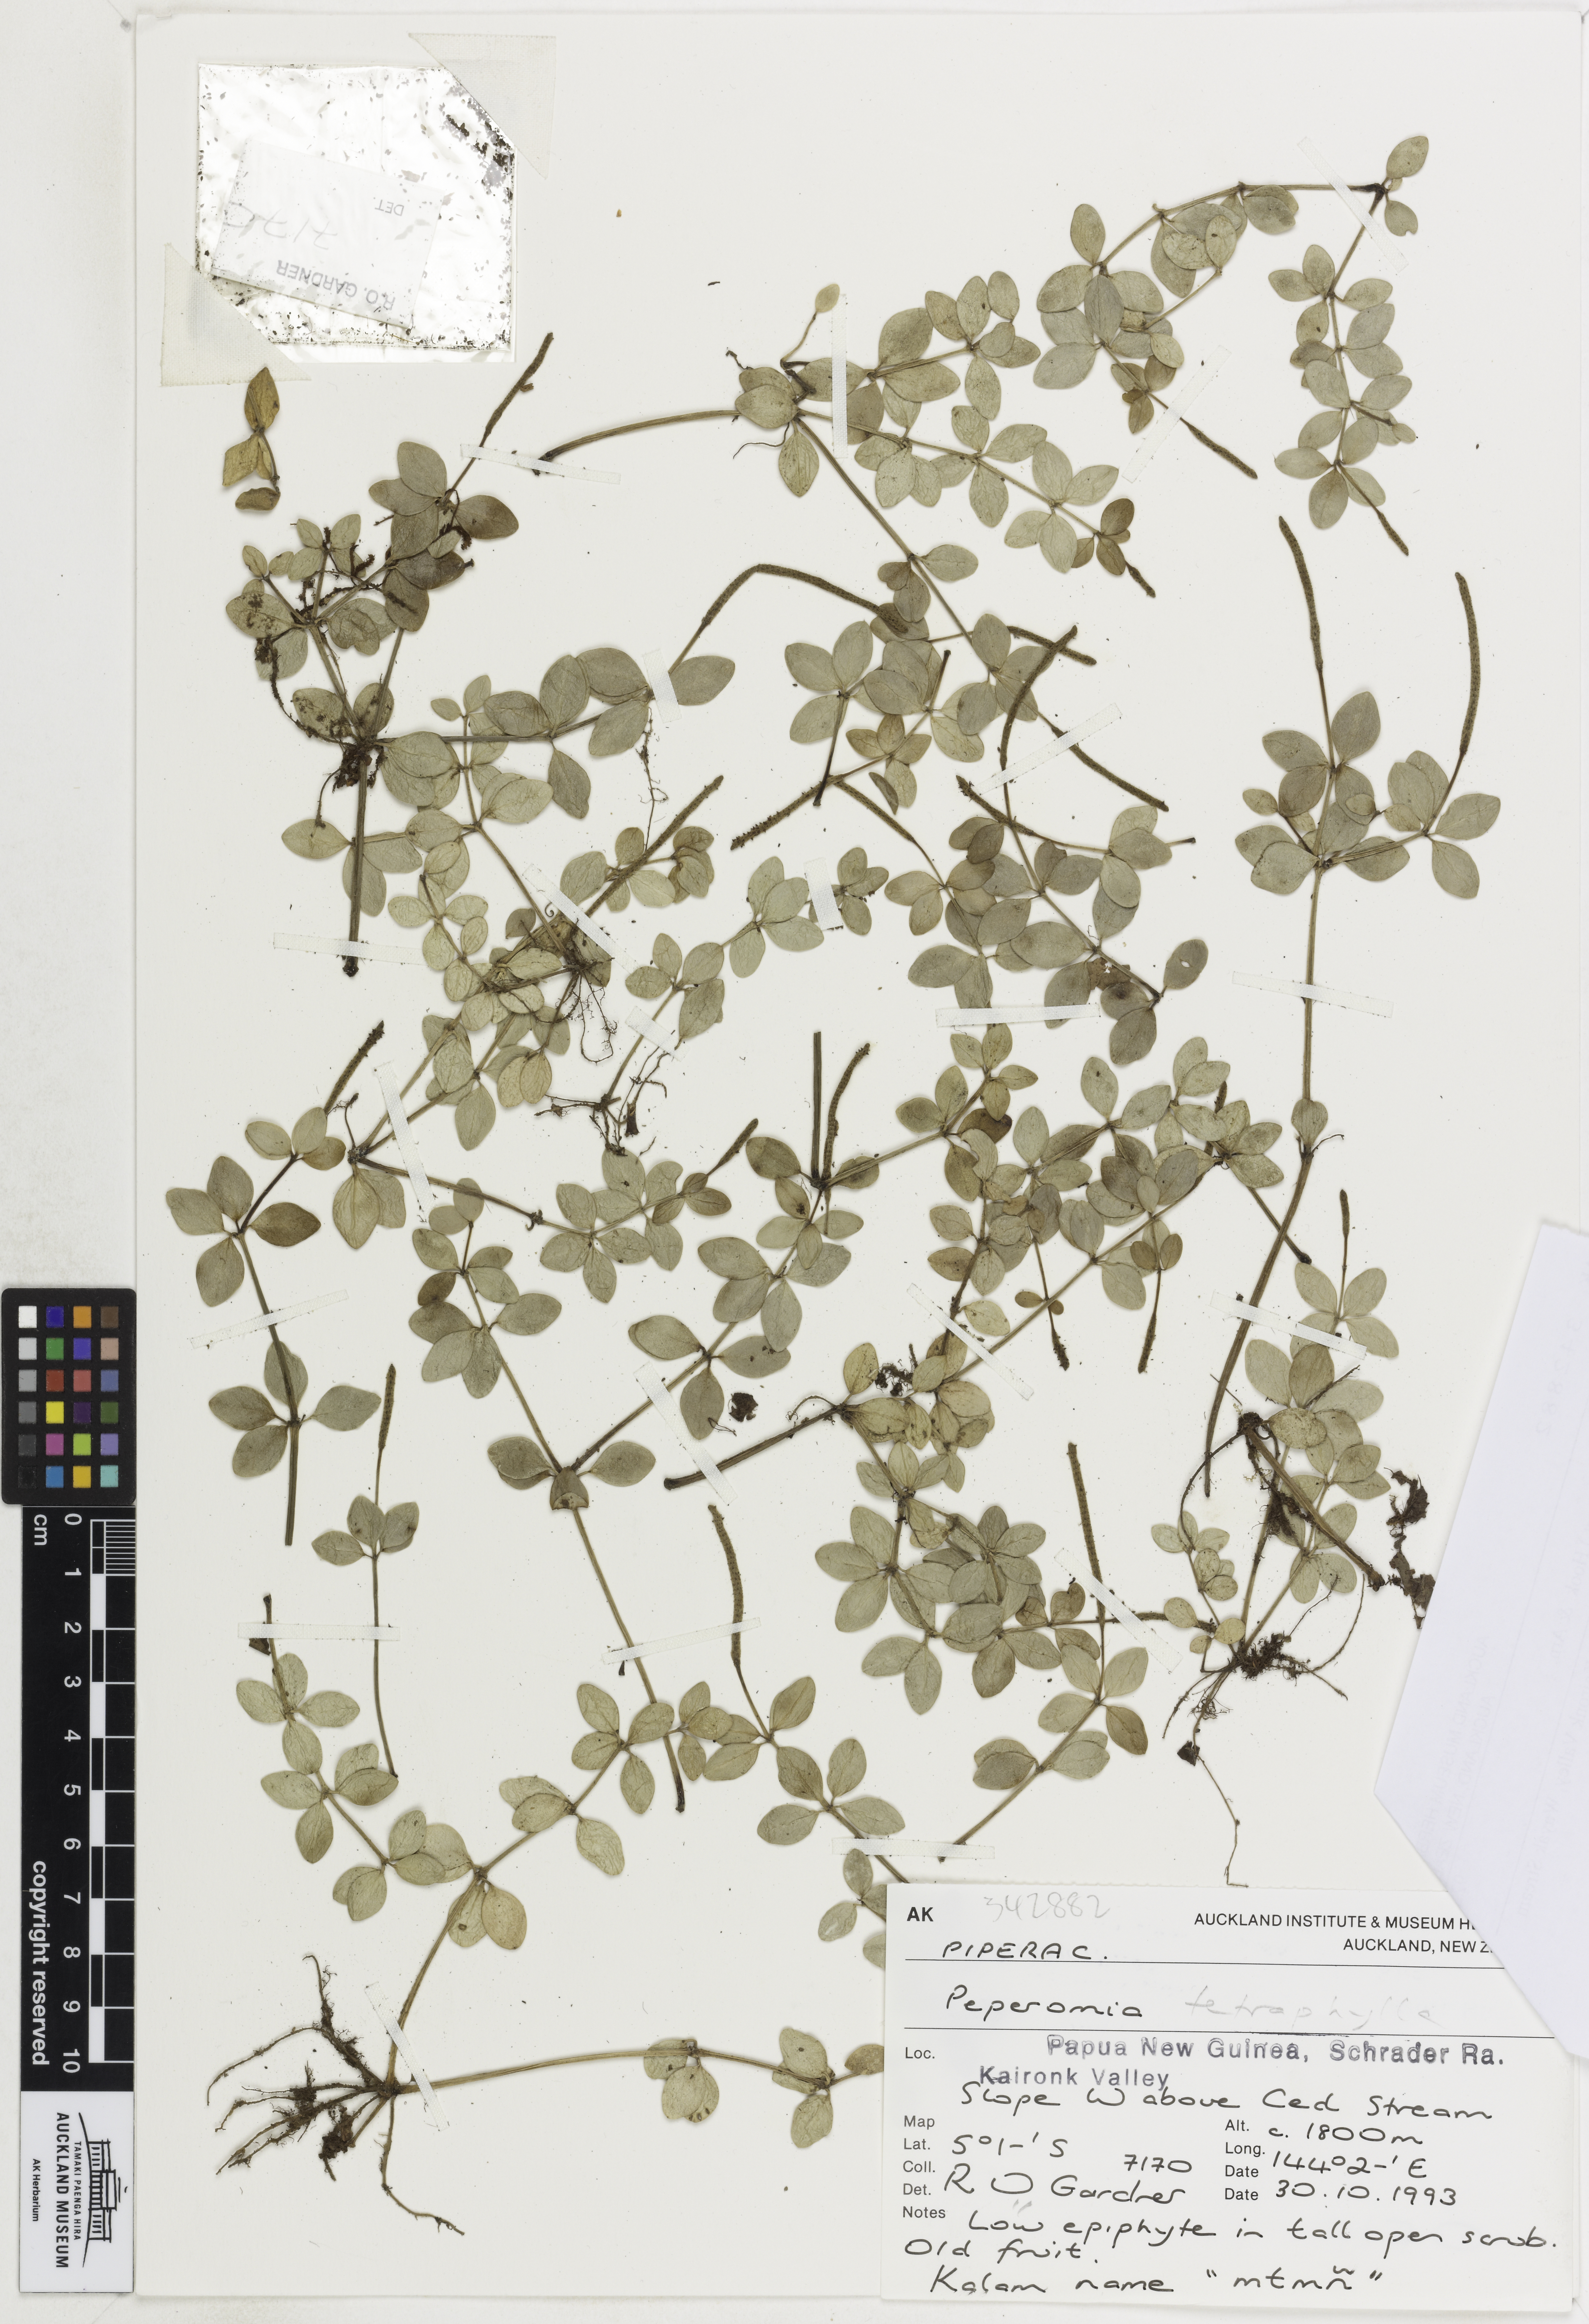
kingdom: Plantae
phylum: Tracheophyta
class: Magnoliopsida
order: Piperales
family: Piperaceae
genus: Peperomia
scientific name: Peperomia tetraphylla
